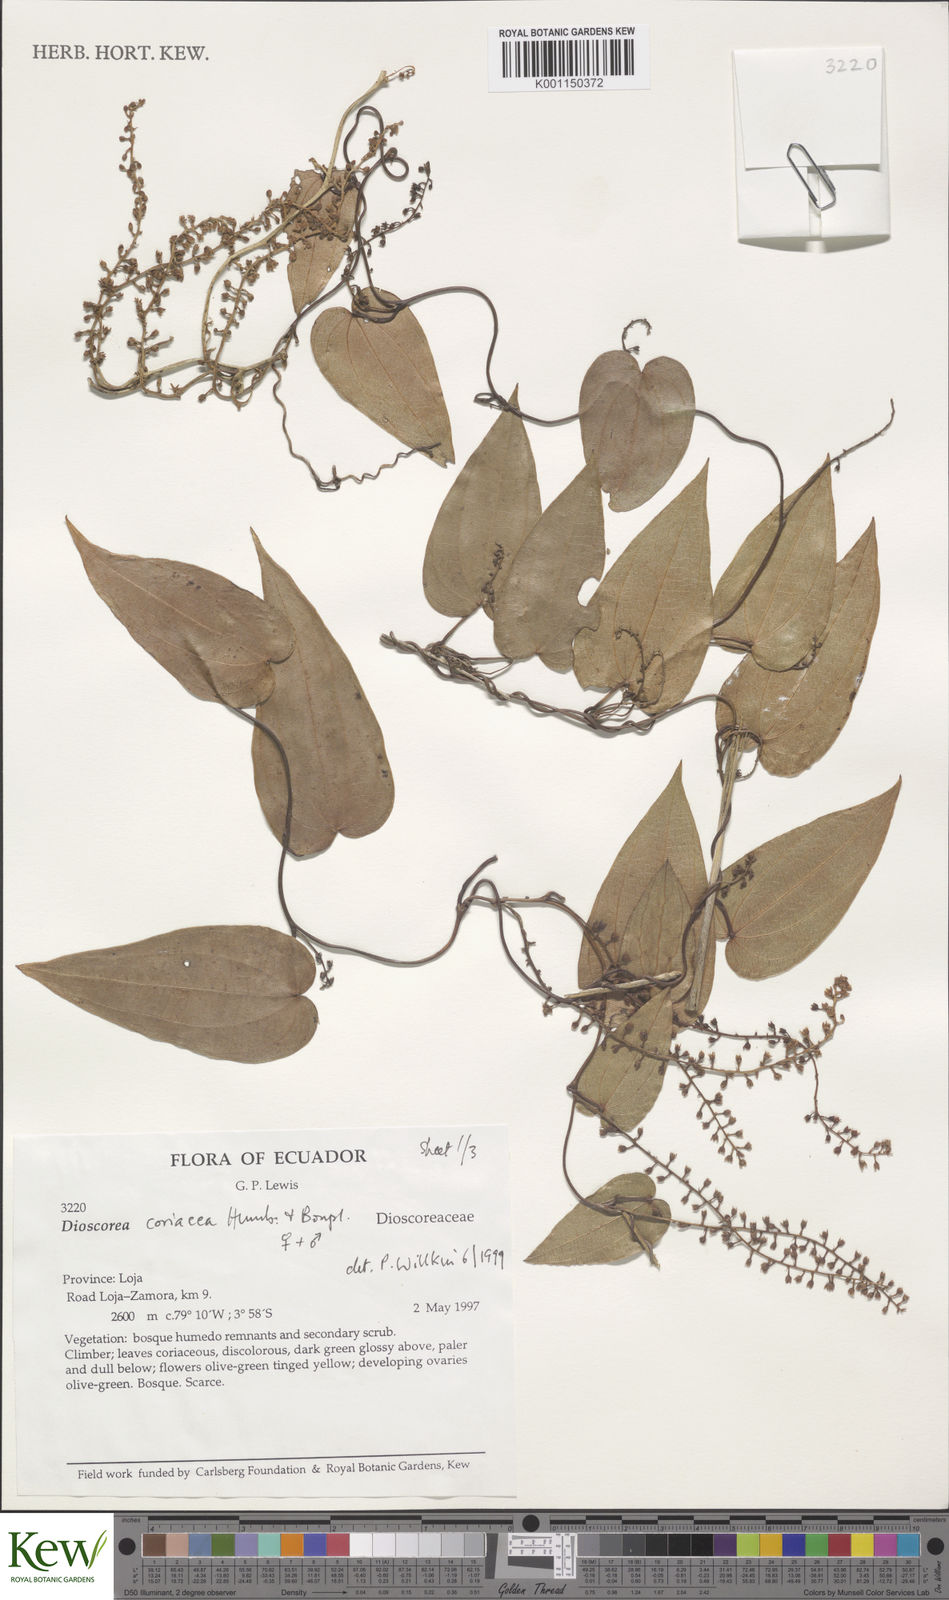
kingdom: Plantae
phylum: Tracheophyta
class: Liliopsida
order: Dioscoreales
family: Dioscoreaceae
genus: Dioscorea
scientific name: Dioscorea coriacea
